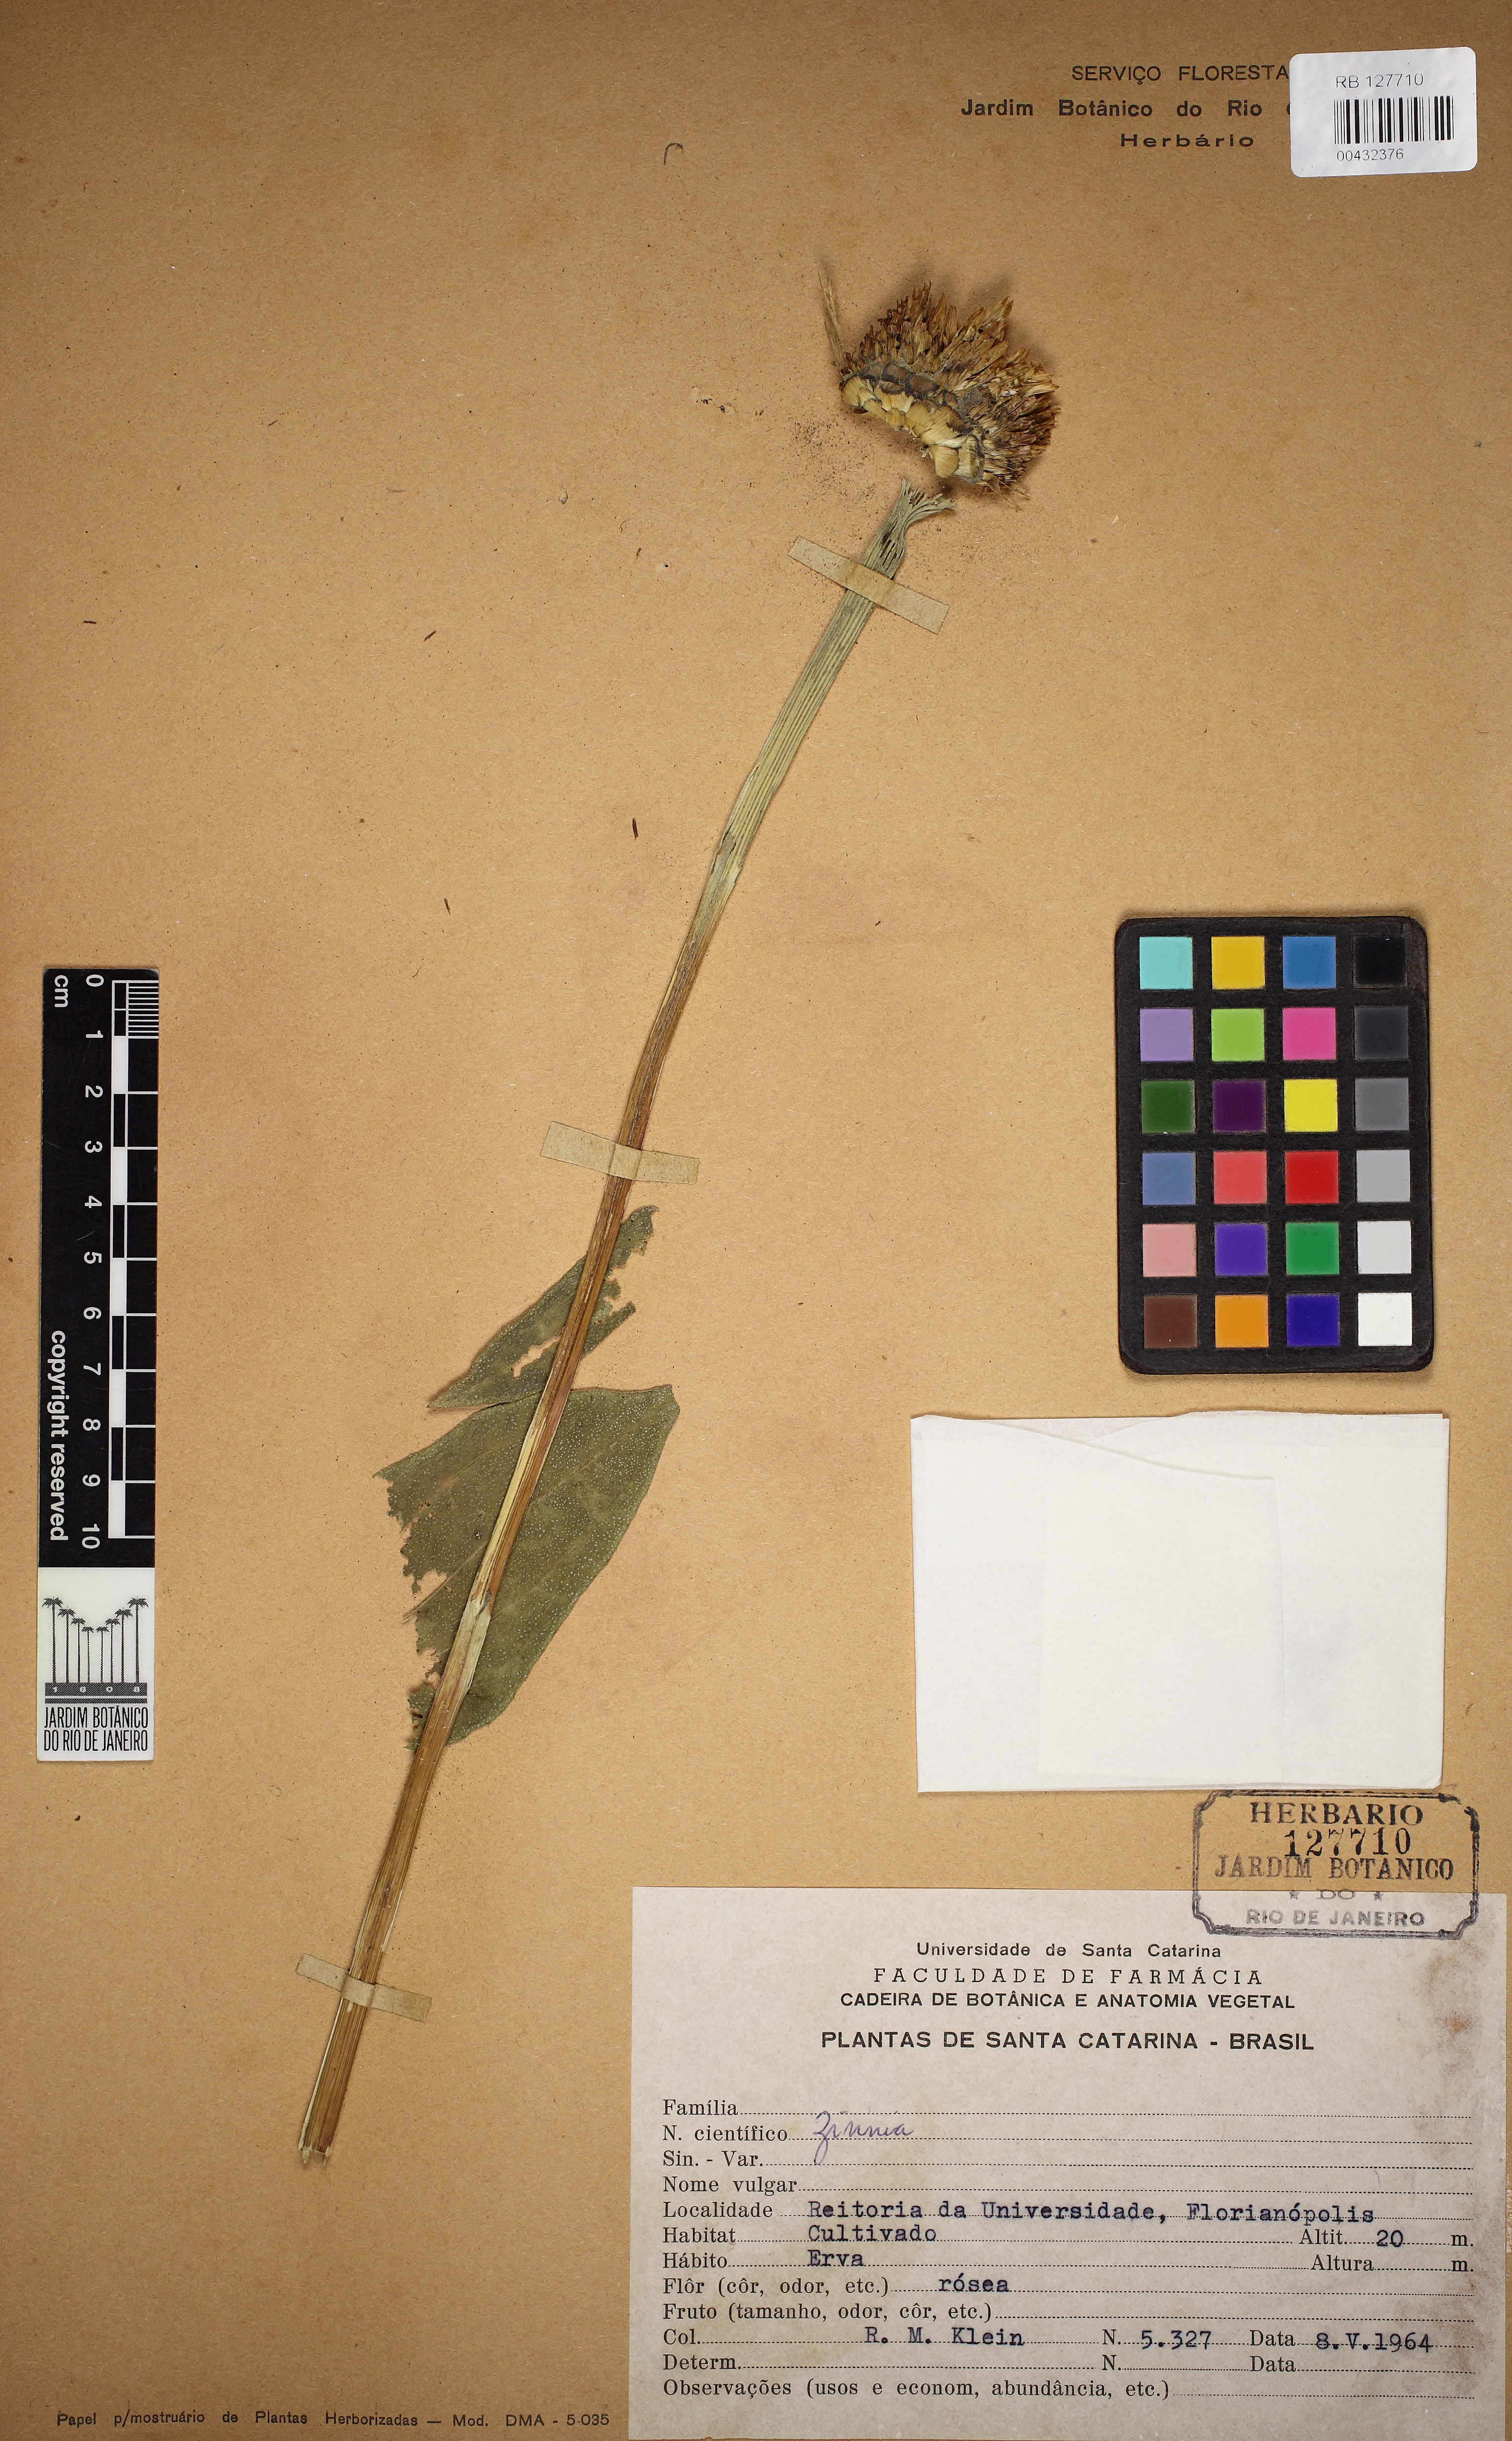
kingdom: Plantae
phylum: Tracheophyta
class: Magnoliopsida
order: Asterales
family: Asteraceae
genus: Zinnia
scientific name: Zinnia elegans
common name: Youth-and-age
